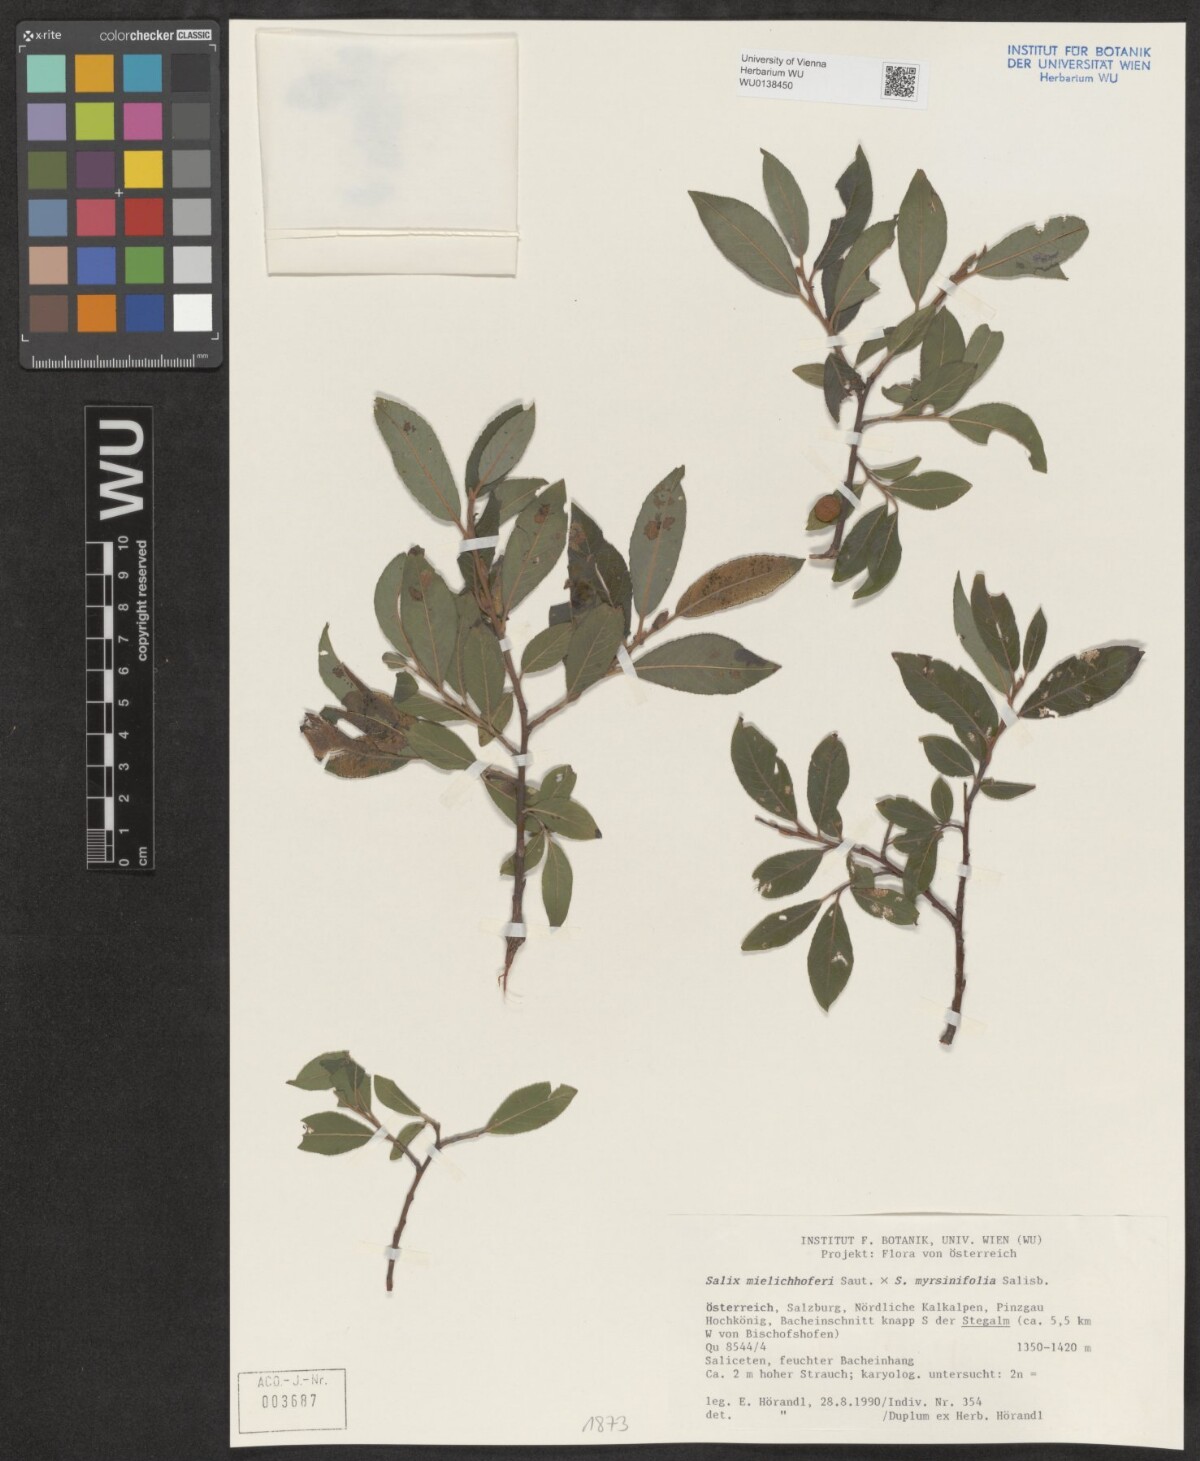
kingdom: Plantae
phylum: Tracheophyta
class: Magnoliopsida
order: Malpighiales
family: Salicaceae
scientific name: Salicaceae
